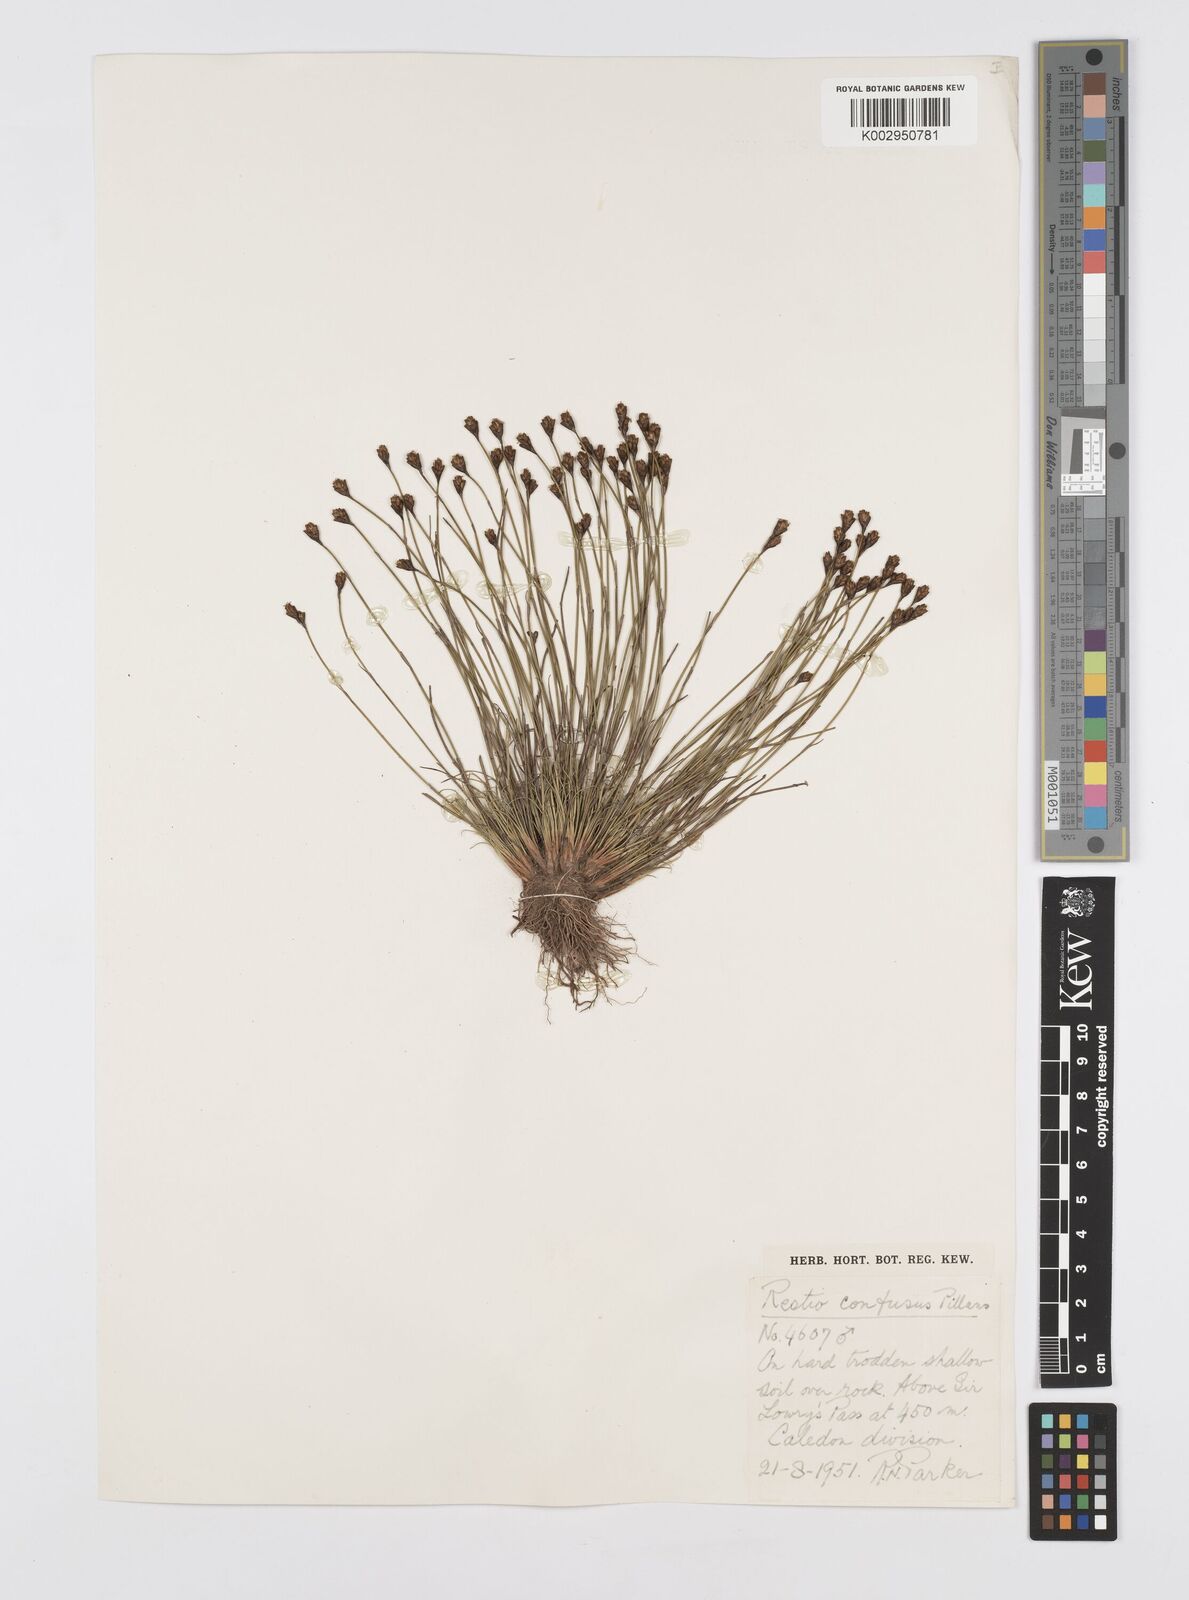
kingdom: Plantae
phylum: Tracheophyta
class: Liliopsida
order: Poales
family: Restionaceae
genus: Restio
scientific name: Restio confusus
